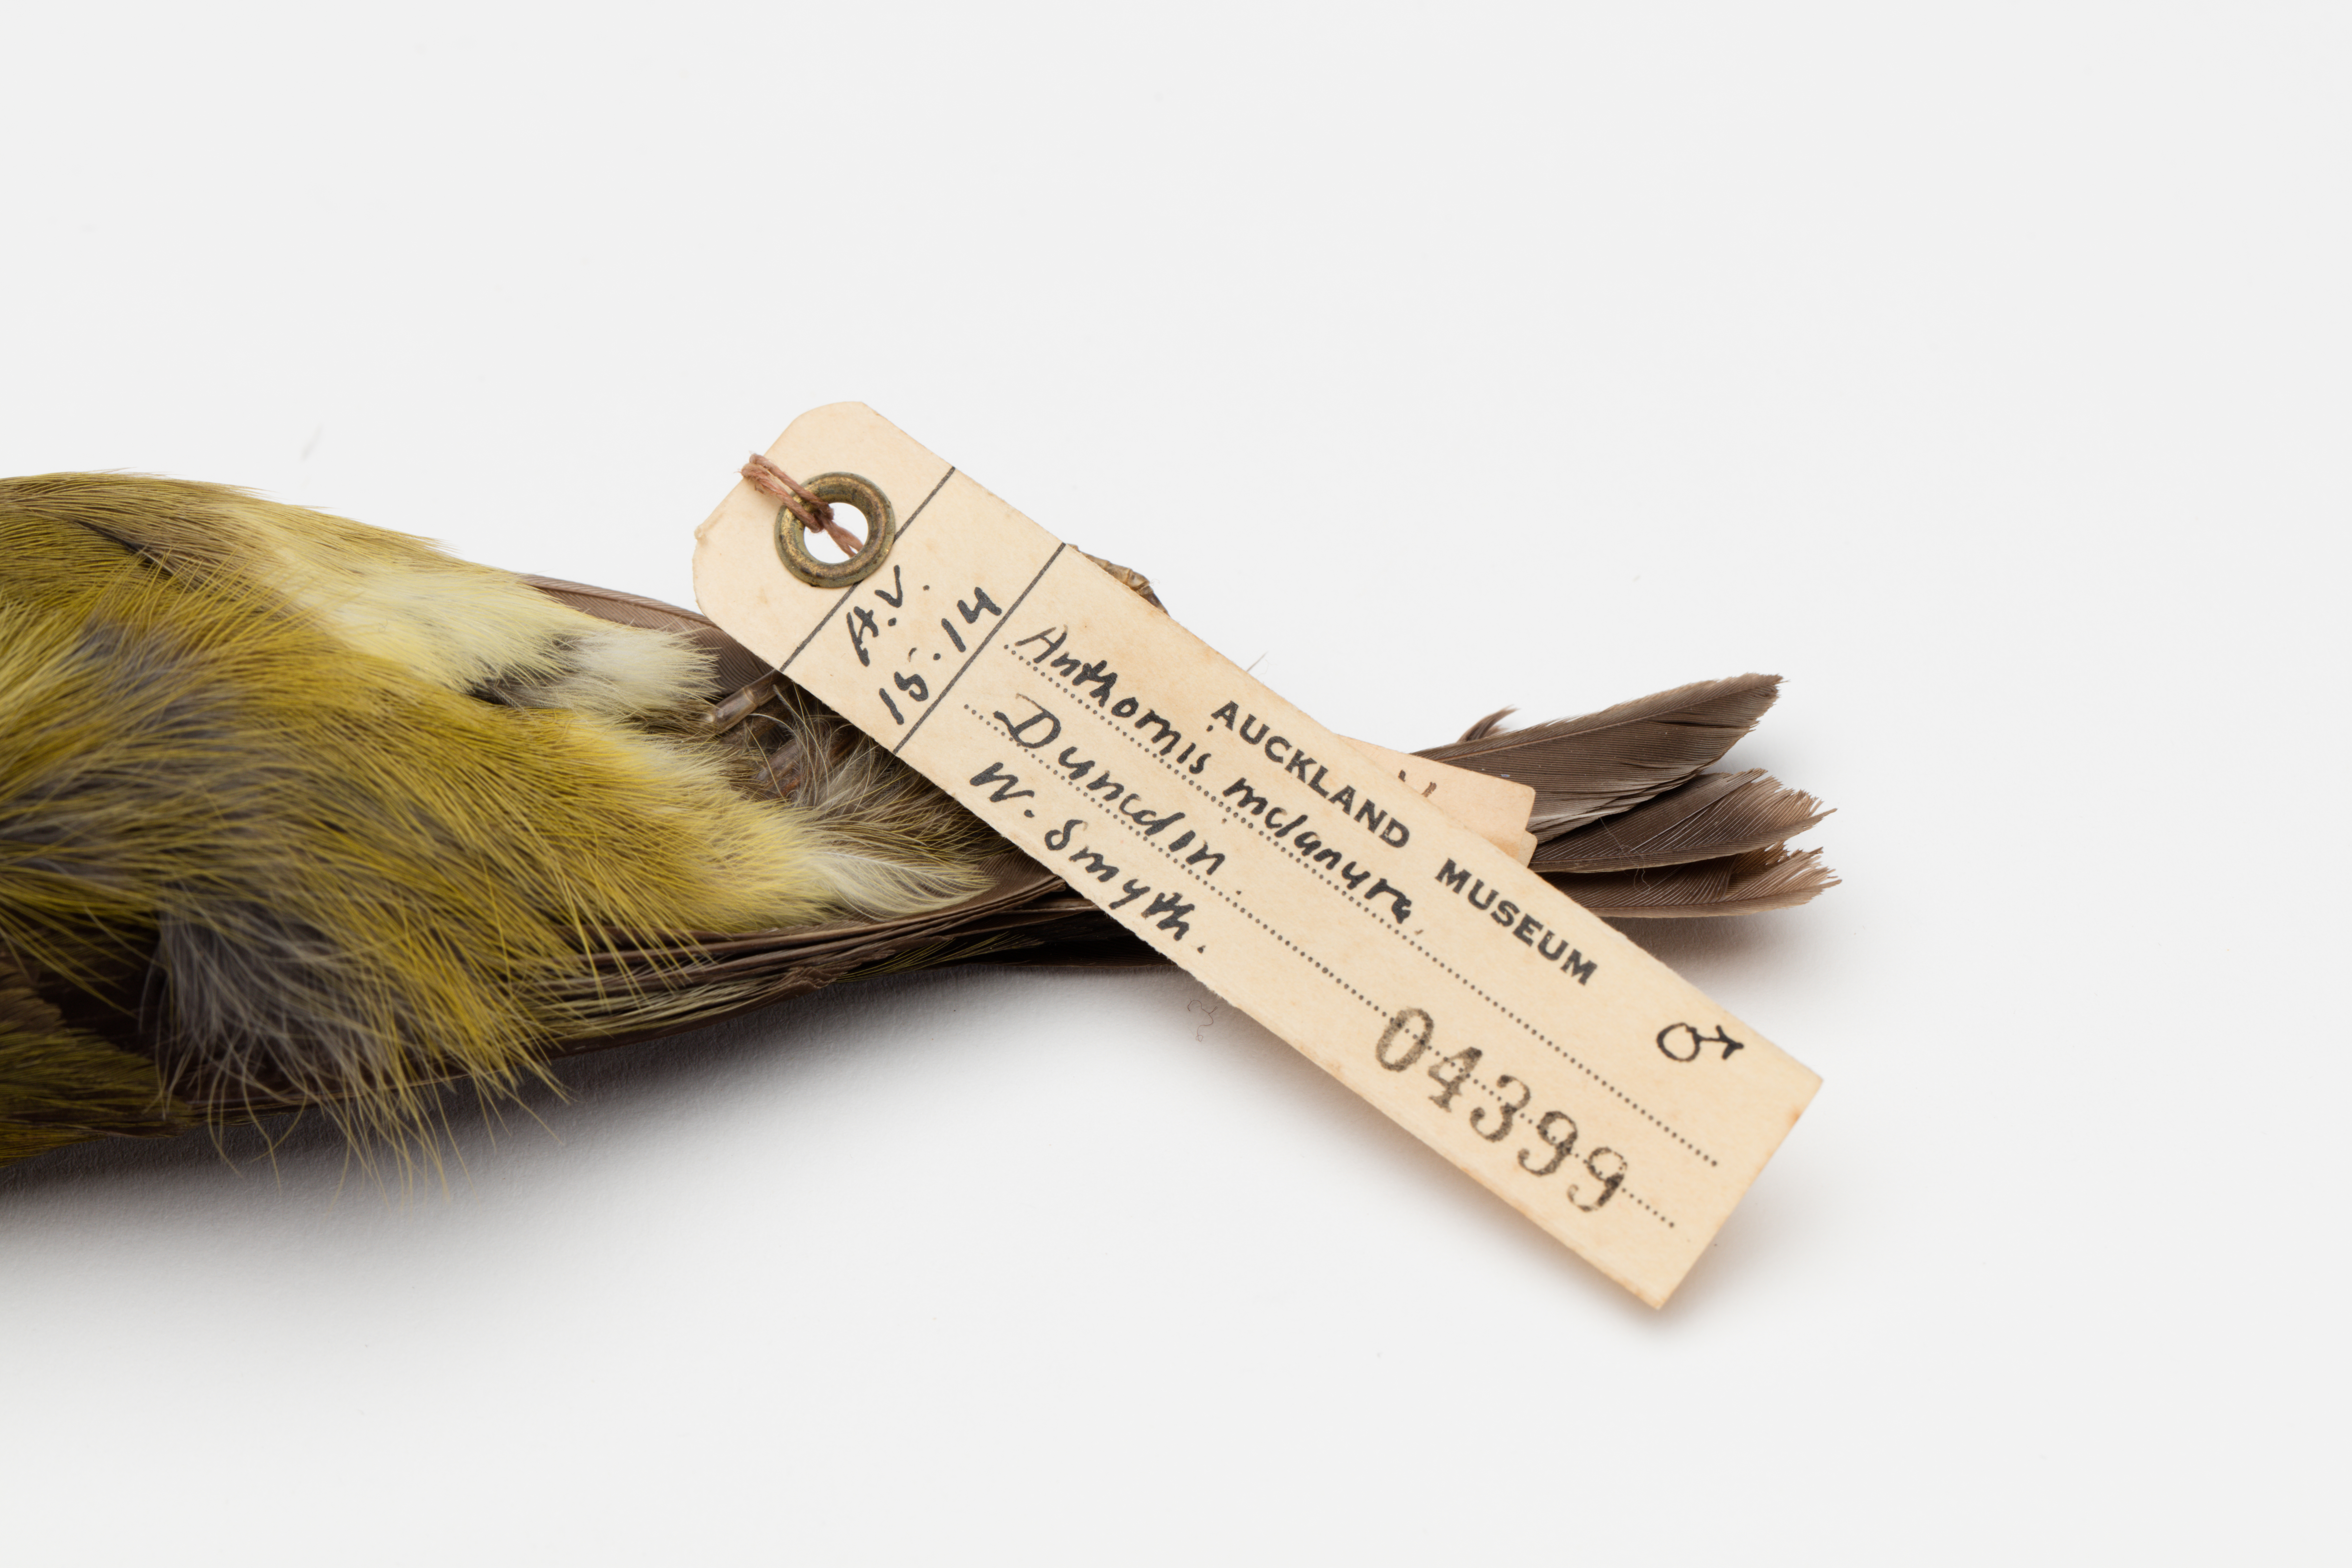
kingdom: Animalia
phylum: Chordata
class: Aves
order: Passeriformes
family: Meliphagidae
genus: Anthornis
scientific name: Anthornis melanura
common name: New zealand bellbird
